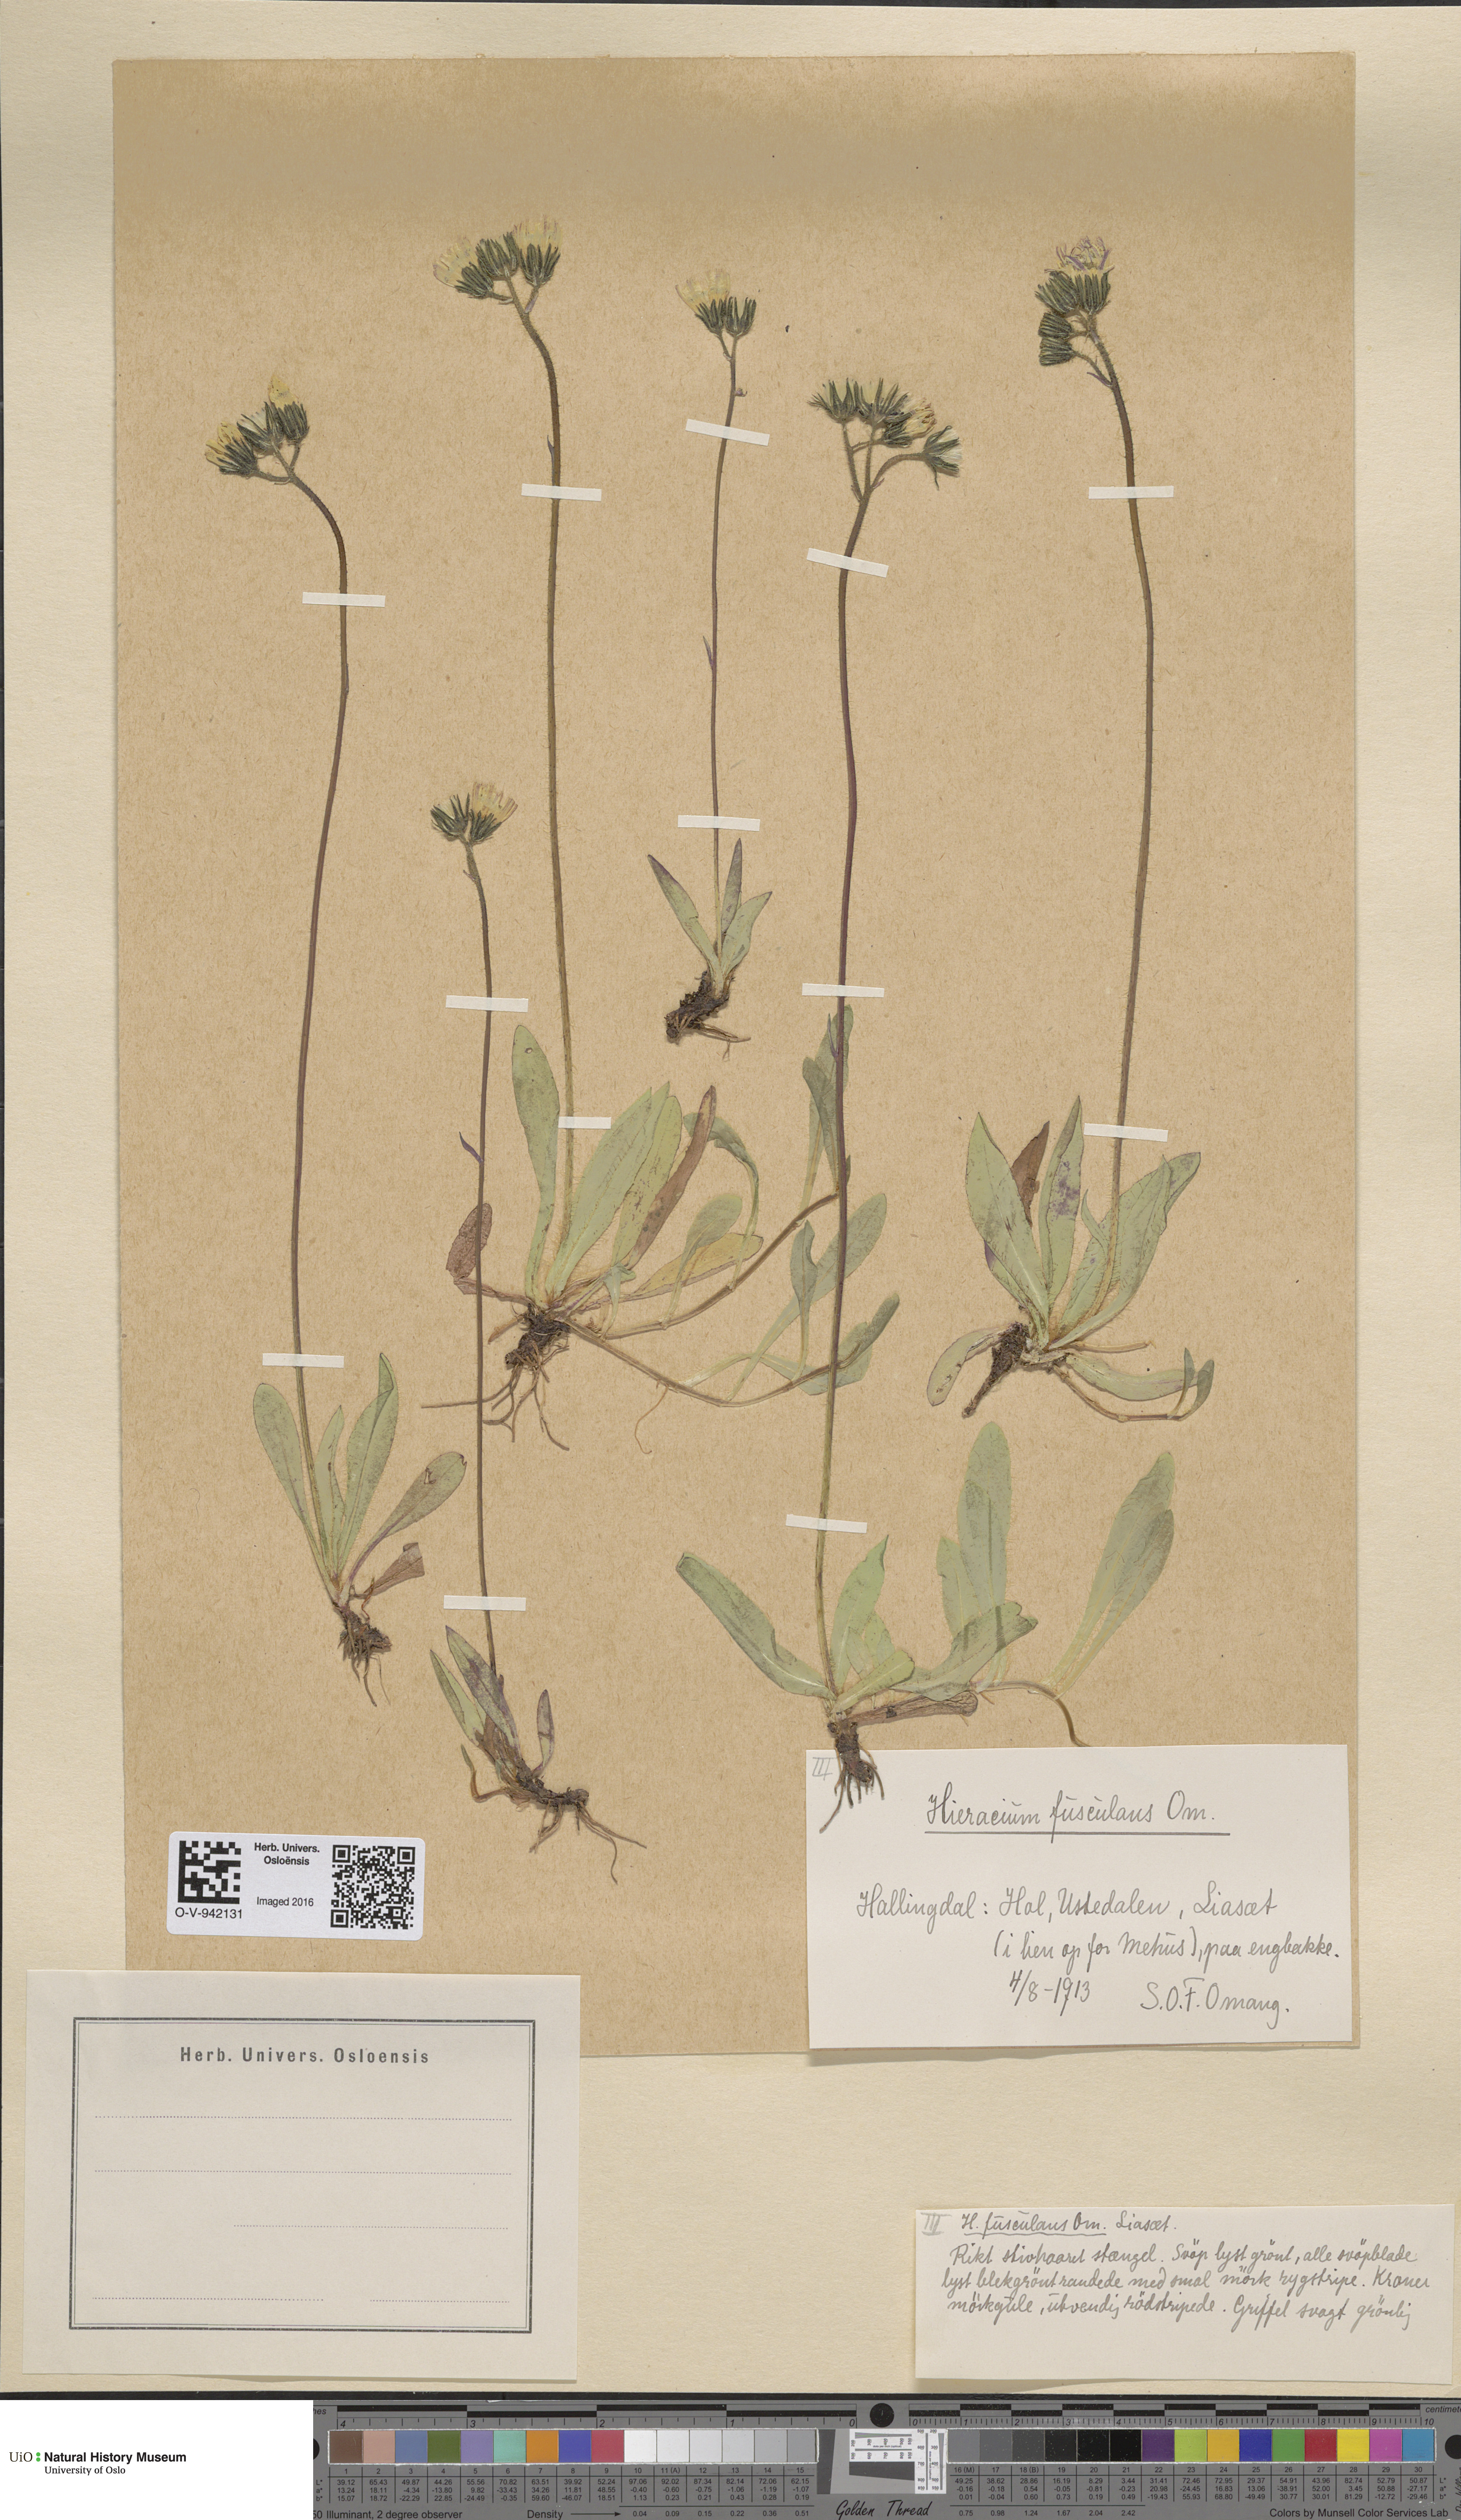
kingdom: Plantae
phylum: Tracheophyta
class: Magnoliopsida
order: Asterales
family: Asteraceae
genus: Pilosella
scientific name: Pilosella dubia
